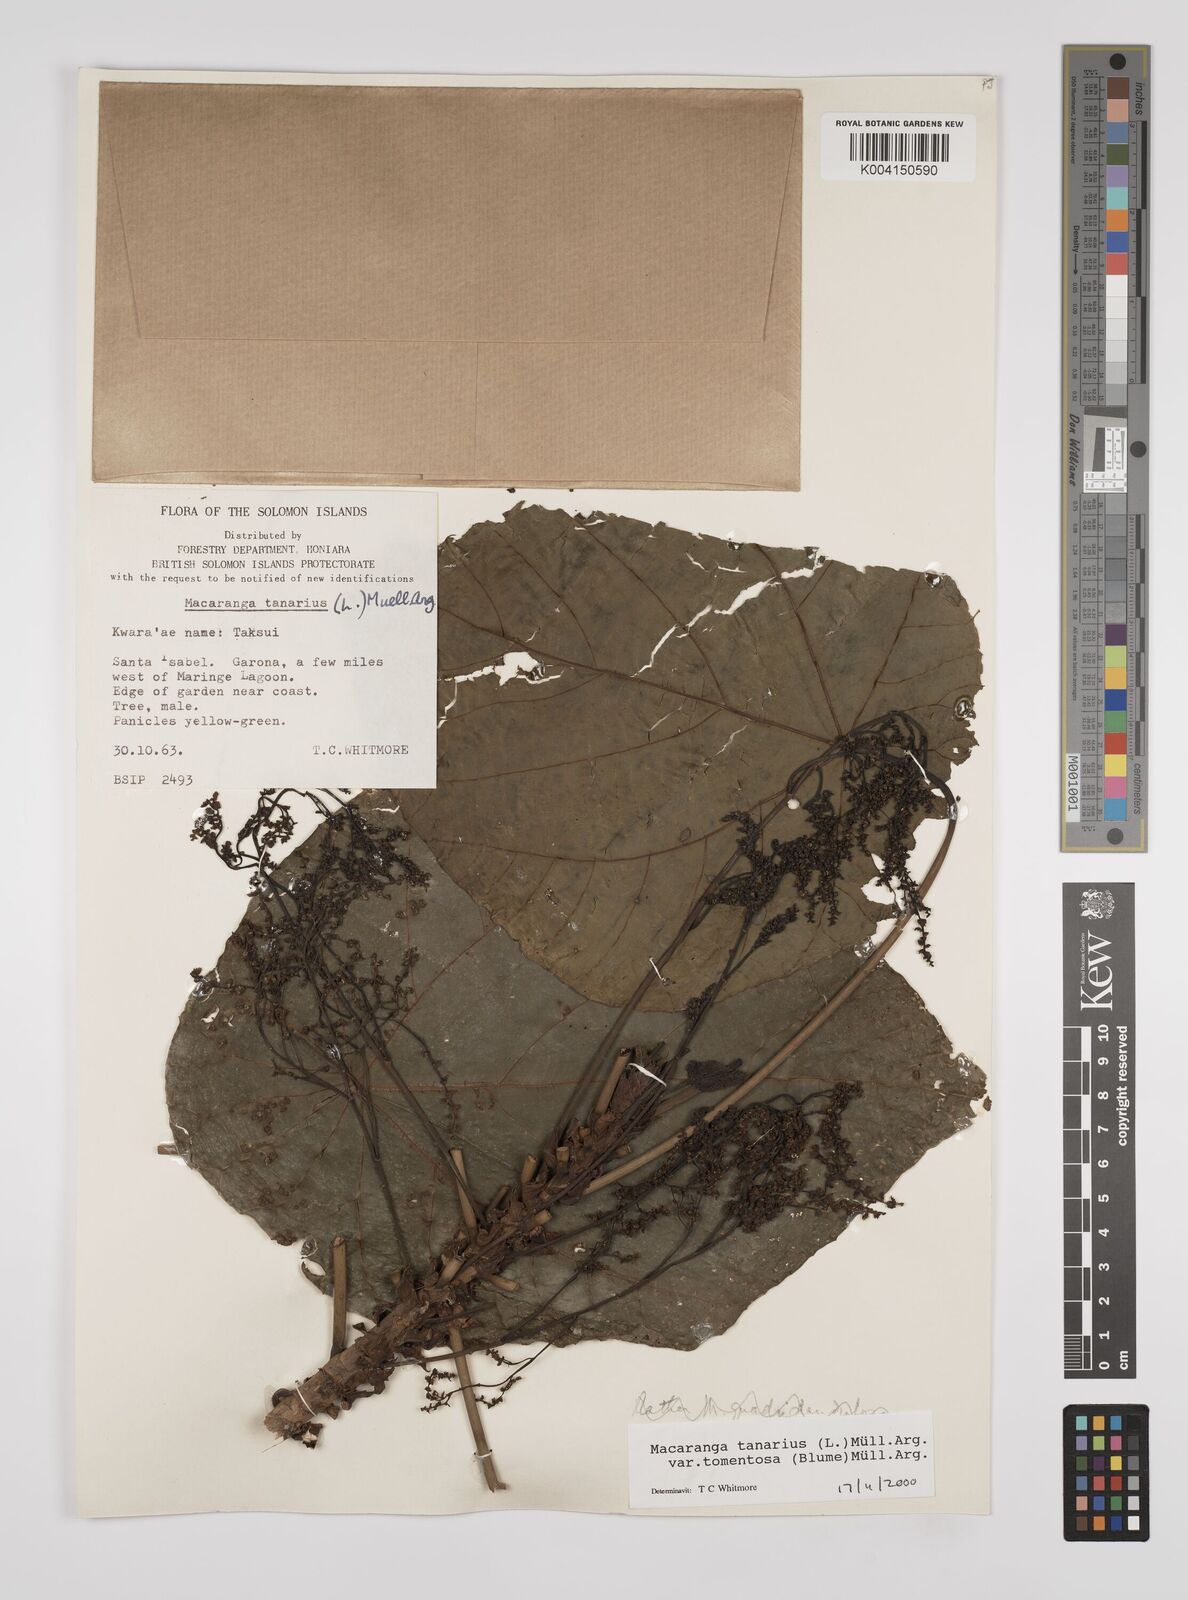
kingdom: Plantae
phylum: Tracheophyta
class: Magnoliopsida
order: Malpighiales
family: Euphorbiaceae
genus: Macaranga
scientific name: Macaranga tanarius
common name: Parasol leaf tree
